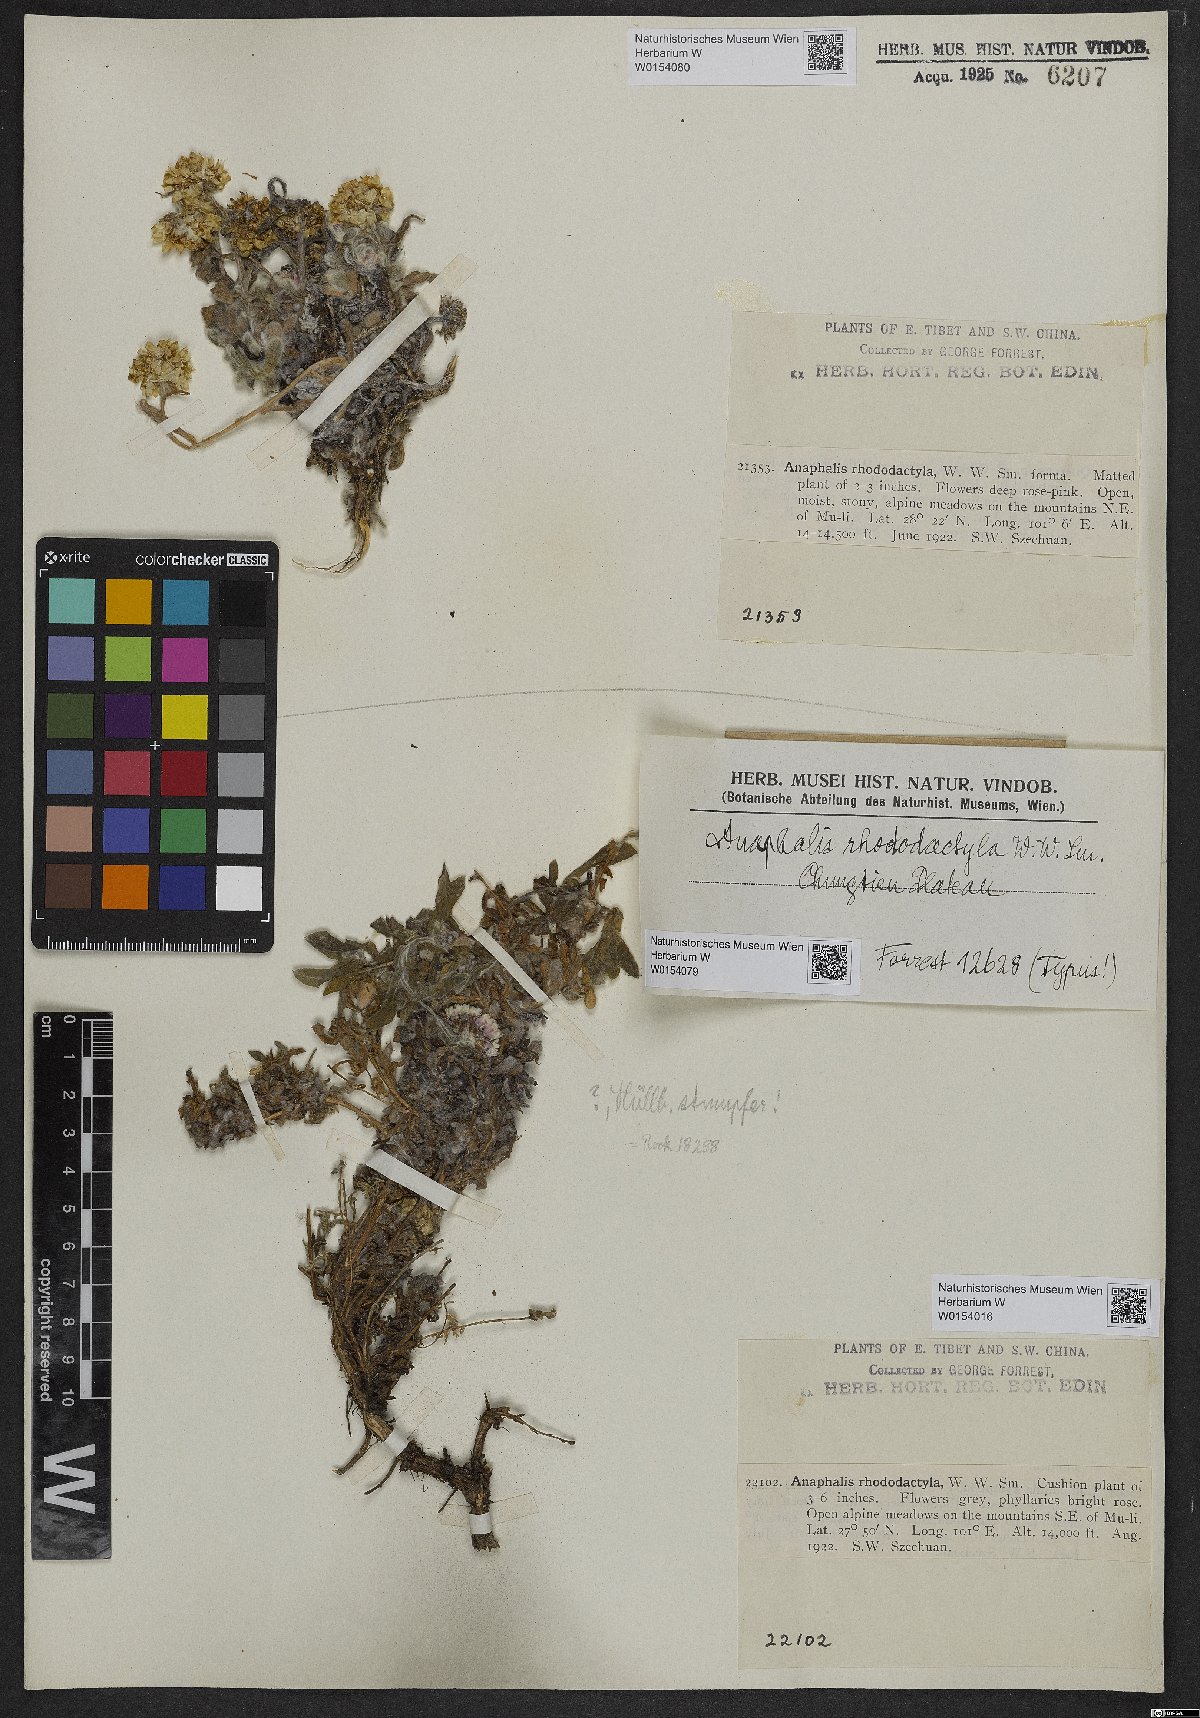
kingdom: Plantae
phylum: Tracheophyta
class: Magnoliopsida
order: Asterales
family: Asteraceae
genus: Anaphalis
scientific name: Anaphalis rhododactyla
